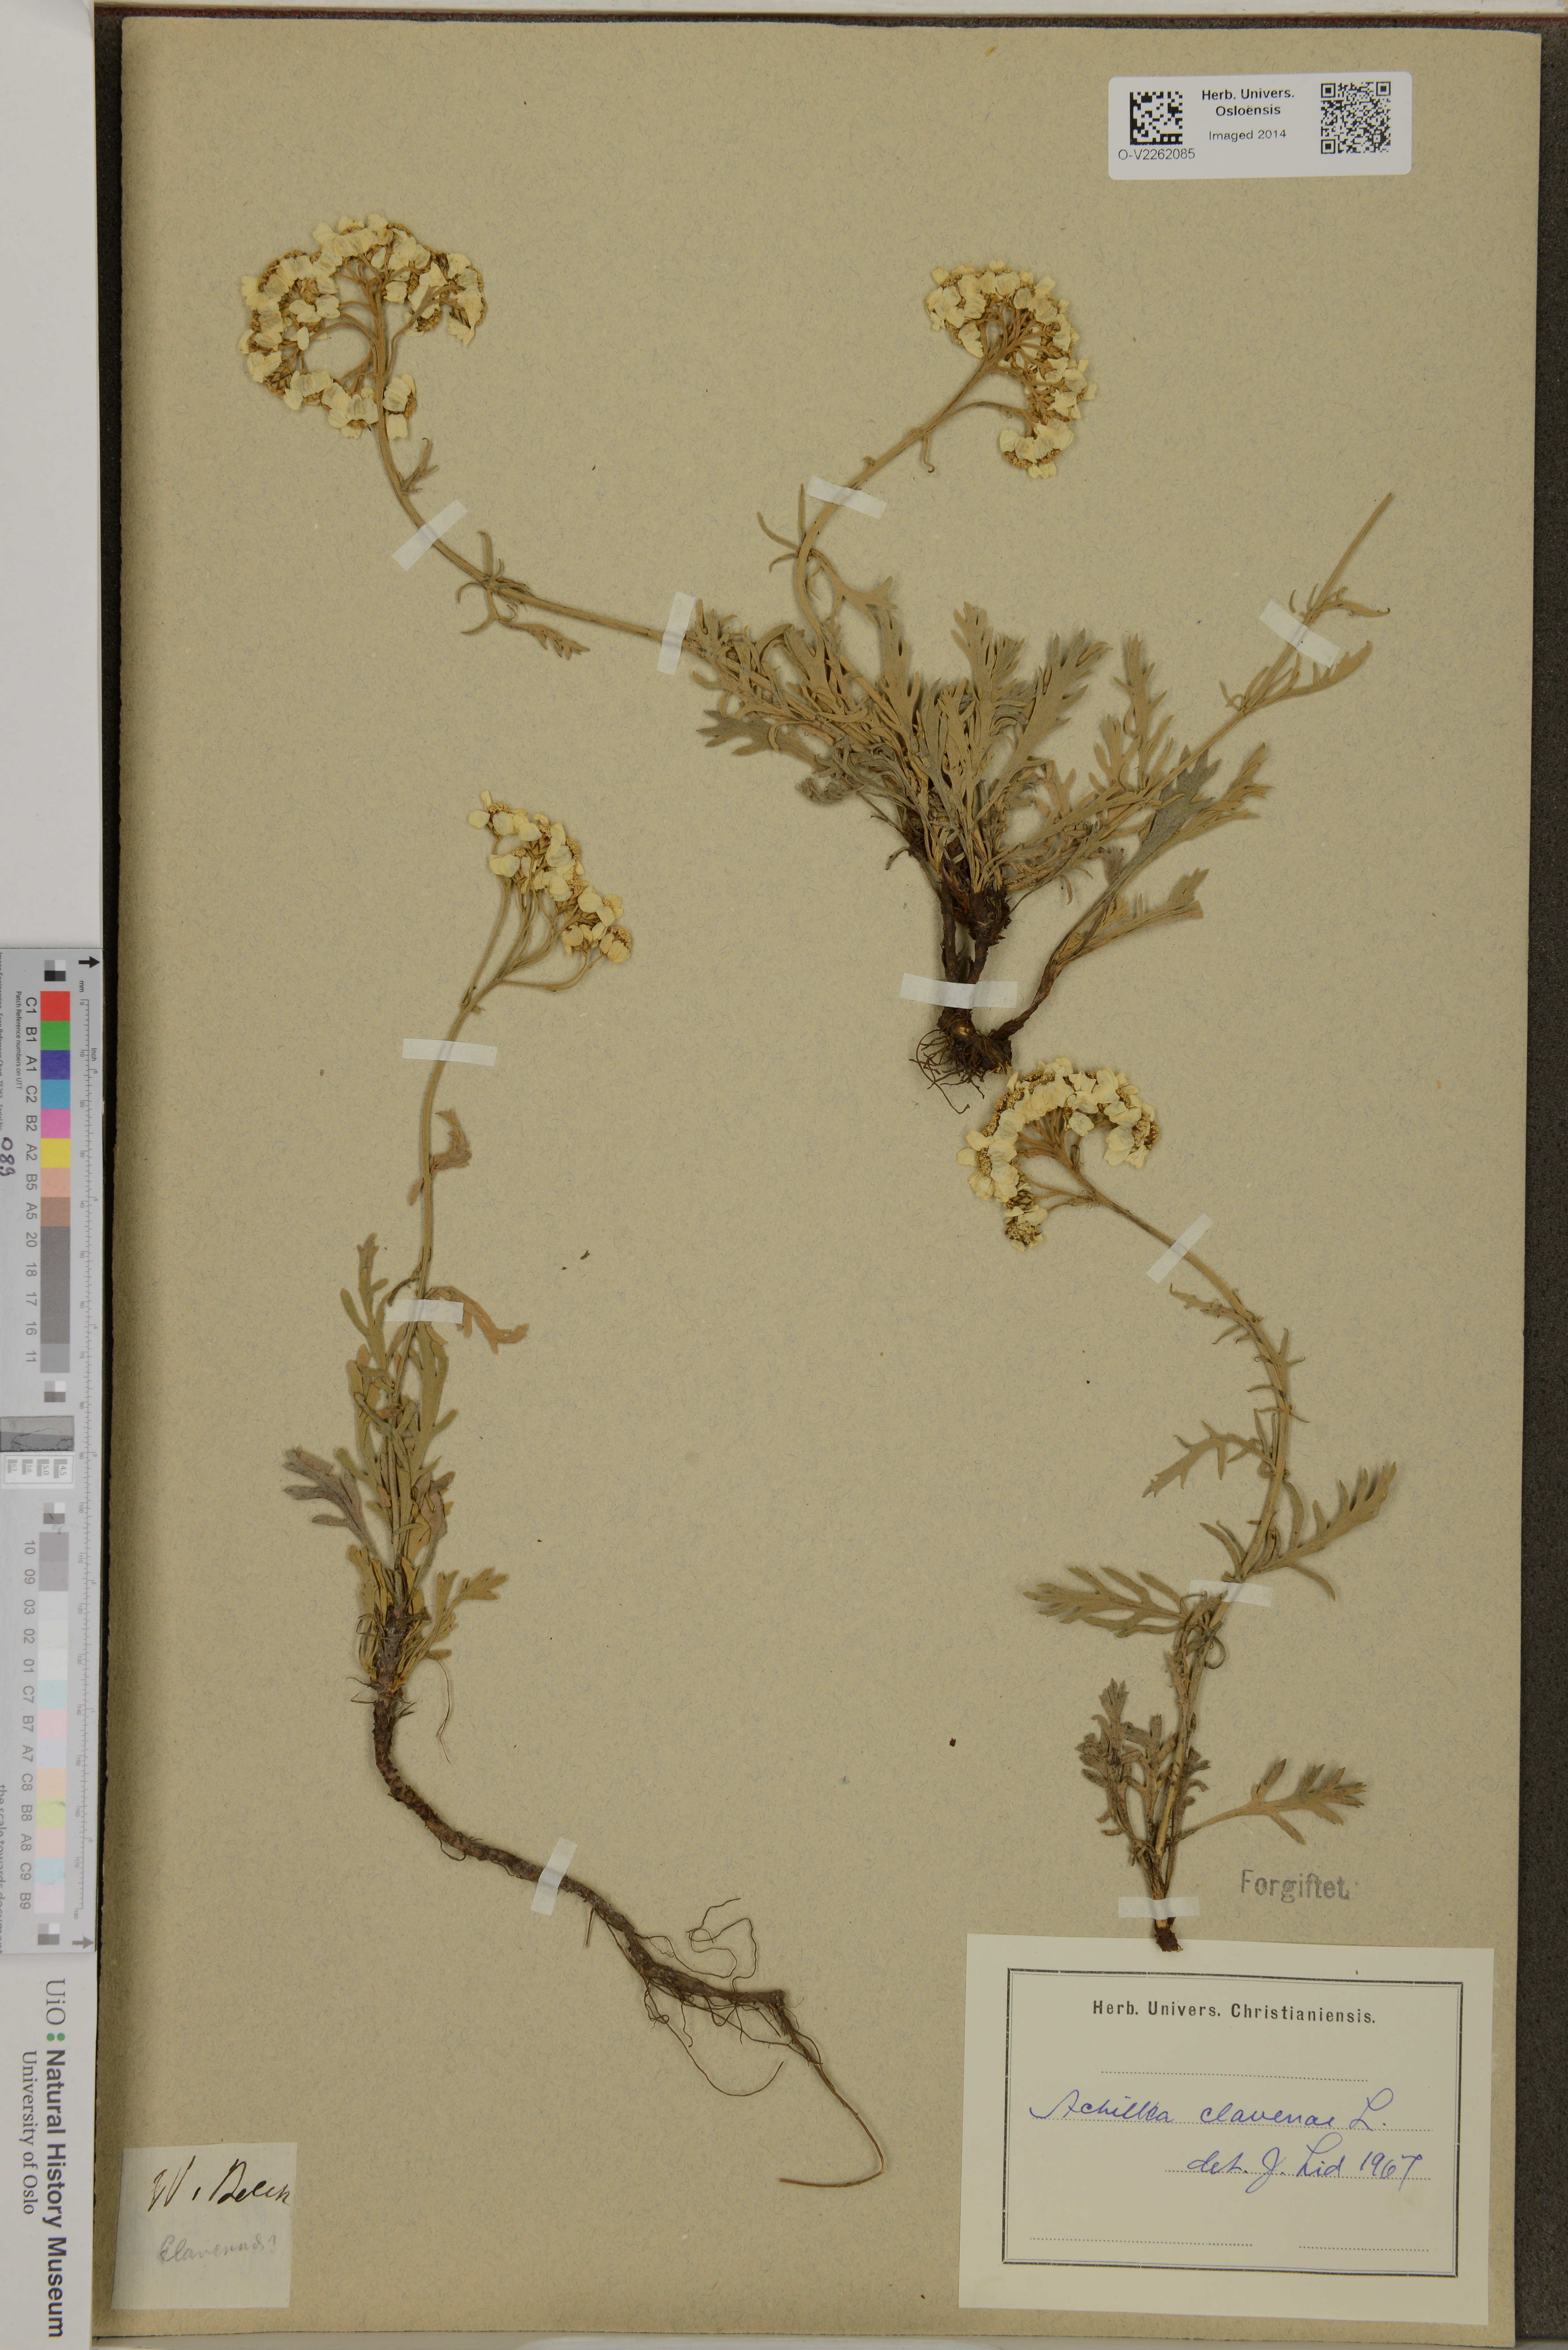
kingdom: Plantae
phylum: Tracheophyta
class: Magnoliopsida
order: Asterales
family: Asteraceae
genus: Achillea
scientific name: Achillea clavennae
